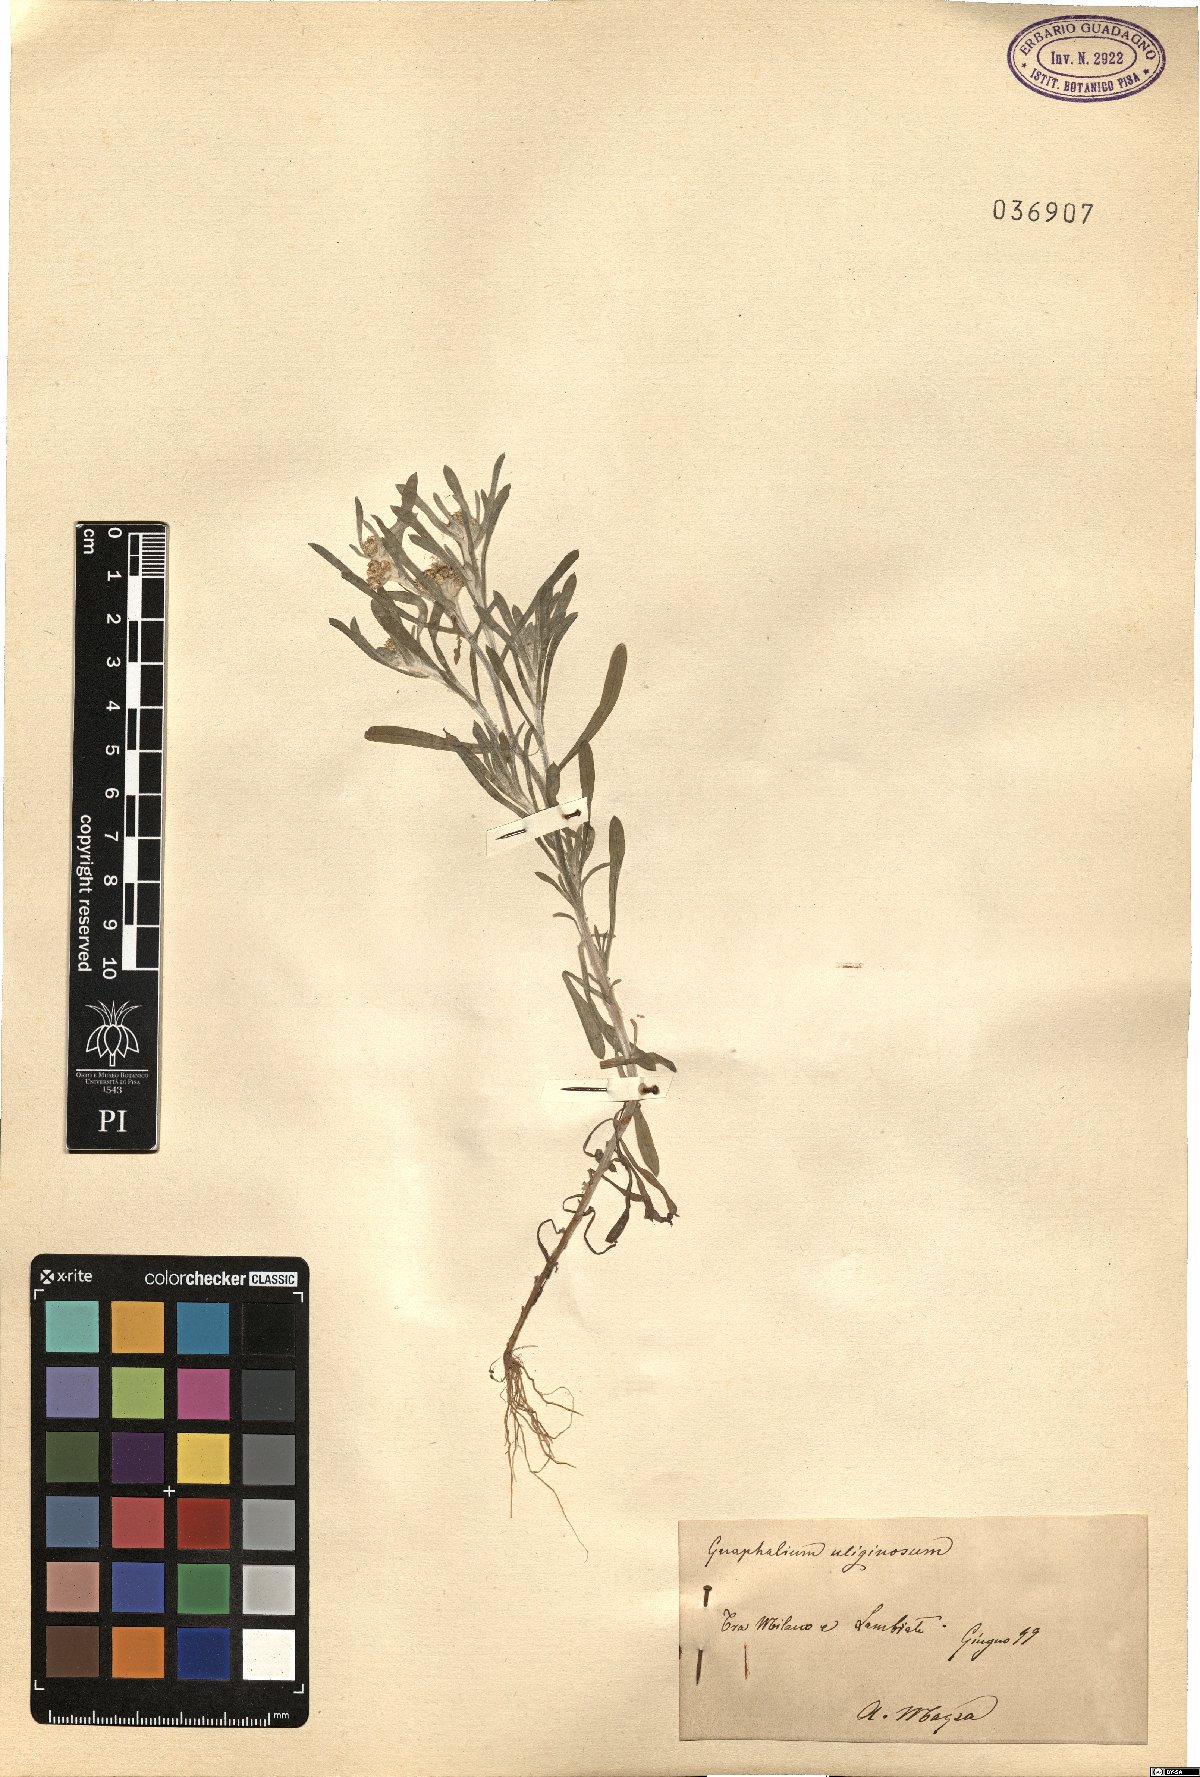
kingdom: Plantae
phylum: Tracheophyta
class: Magnoliopsida
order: Asterales
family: Asteraceae
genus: Gnaphalium
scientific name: Gnaphalium uliginosum
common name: Marsh cudweed
